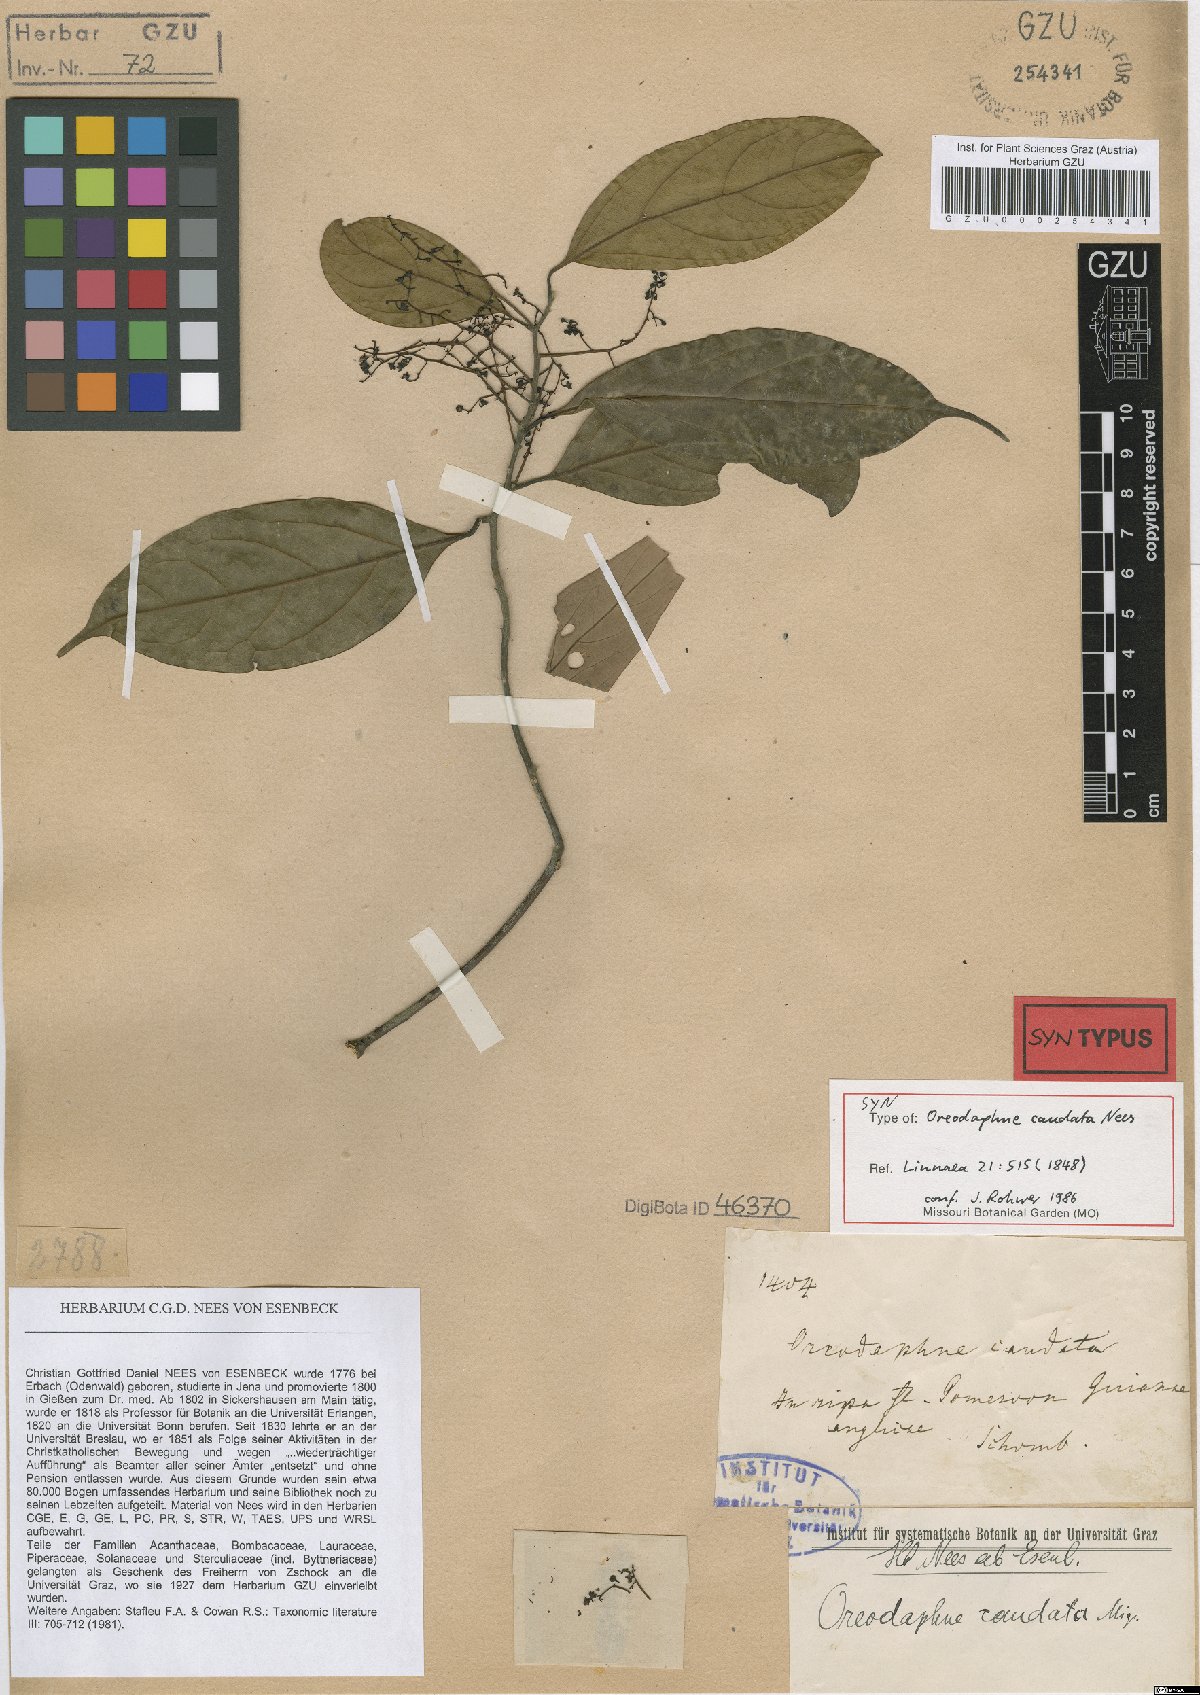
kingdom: Plantae
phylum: Tracheophyta
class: Magnoliopsida
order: Laurales
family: Lauraceae
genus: Ocotea
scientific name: Ocotea leptobotra
